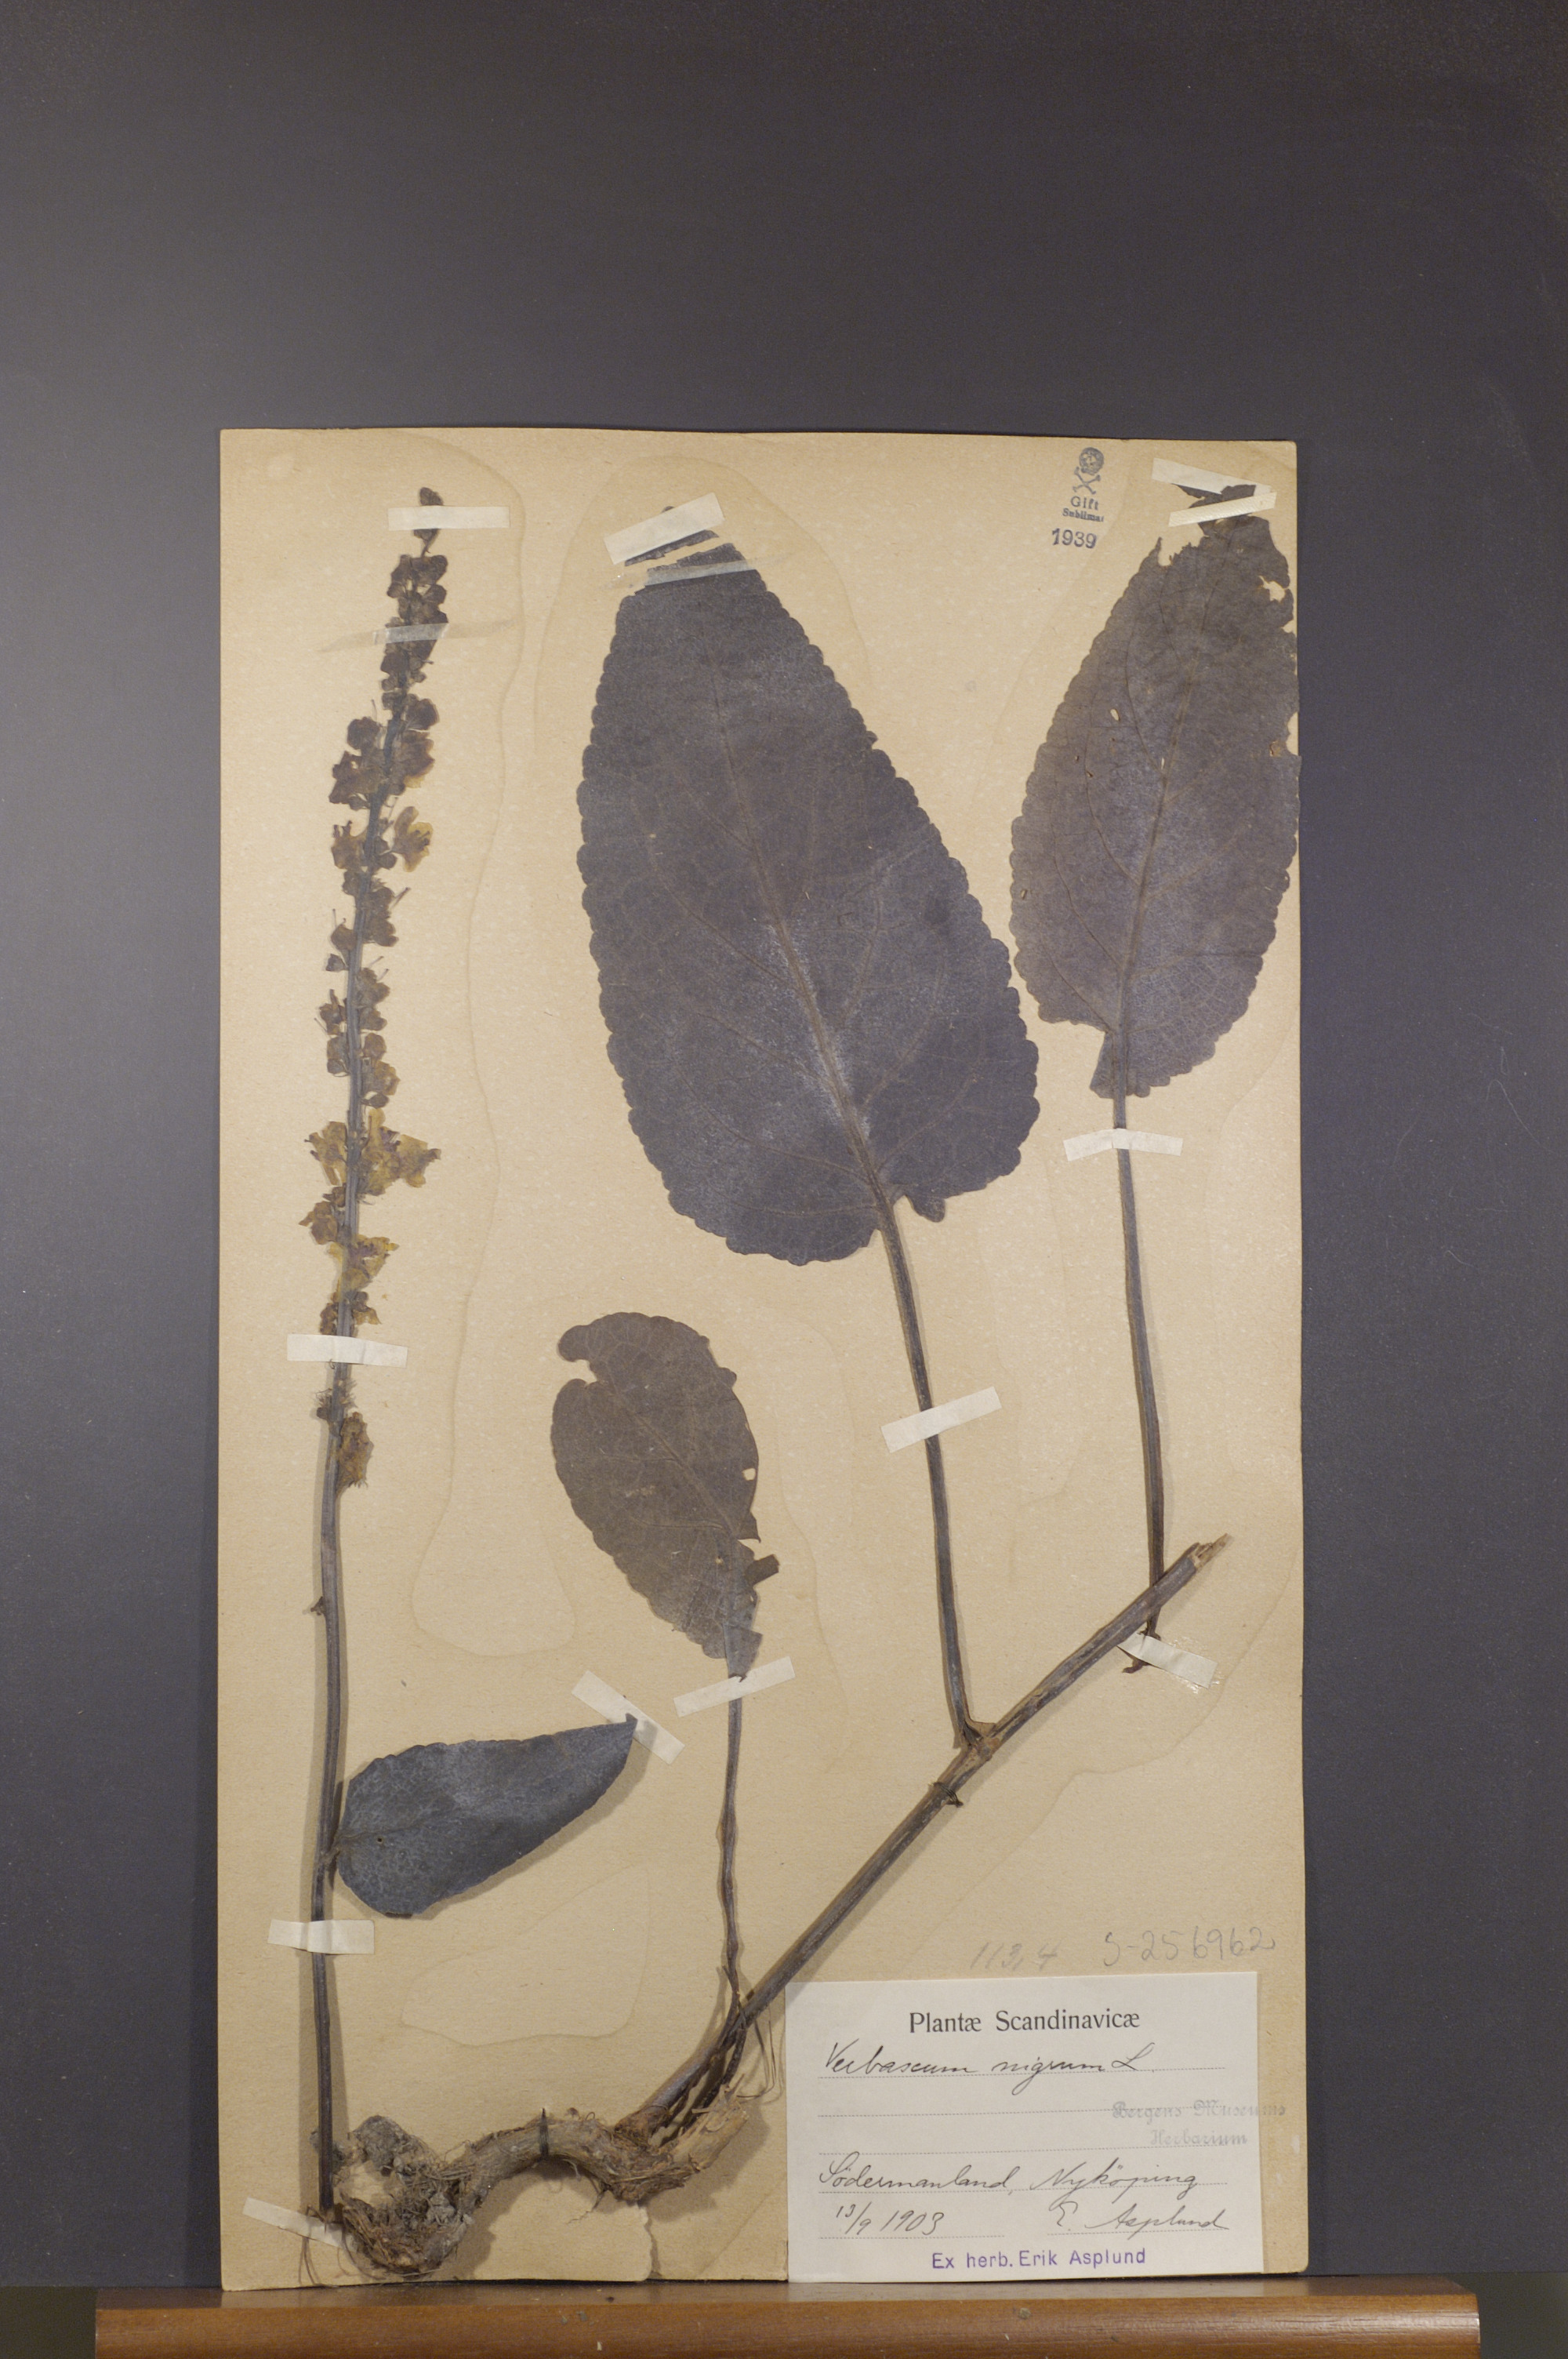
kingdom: Plantae
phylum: Tracheophyta
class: Magnoliopsida
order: Lamiales
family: Scrophulariaceae
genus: Verbascum
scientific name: Verbascum nigrum
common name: Dark mullein
